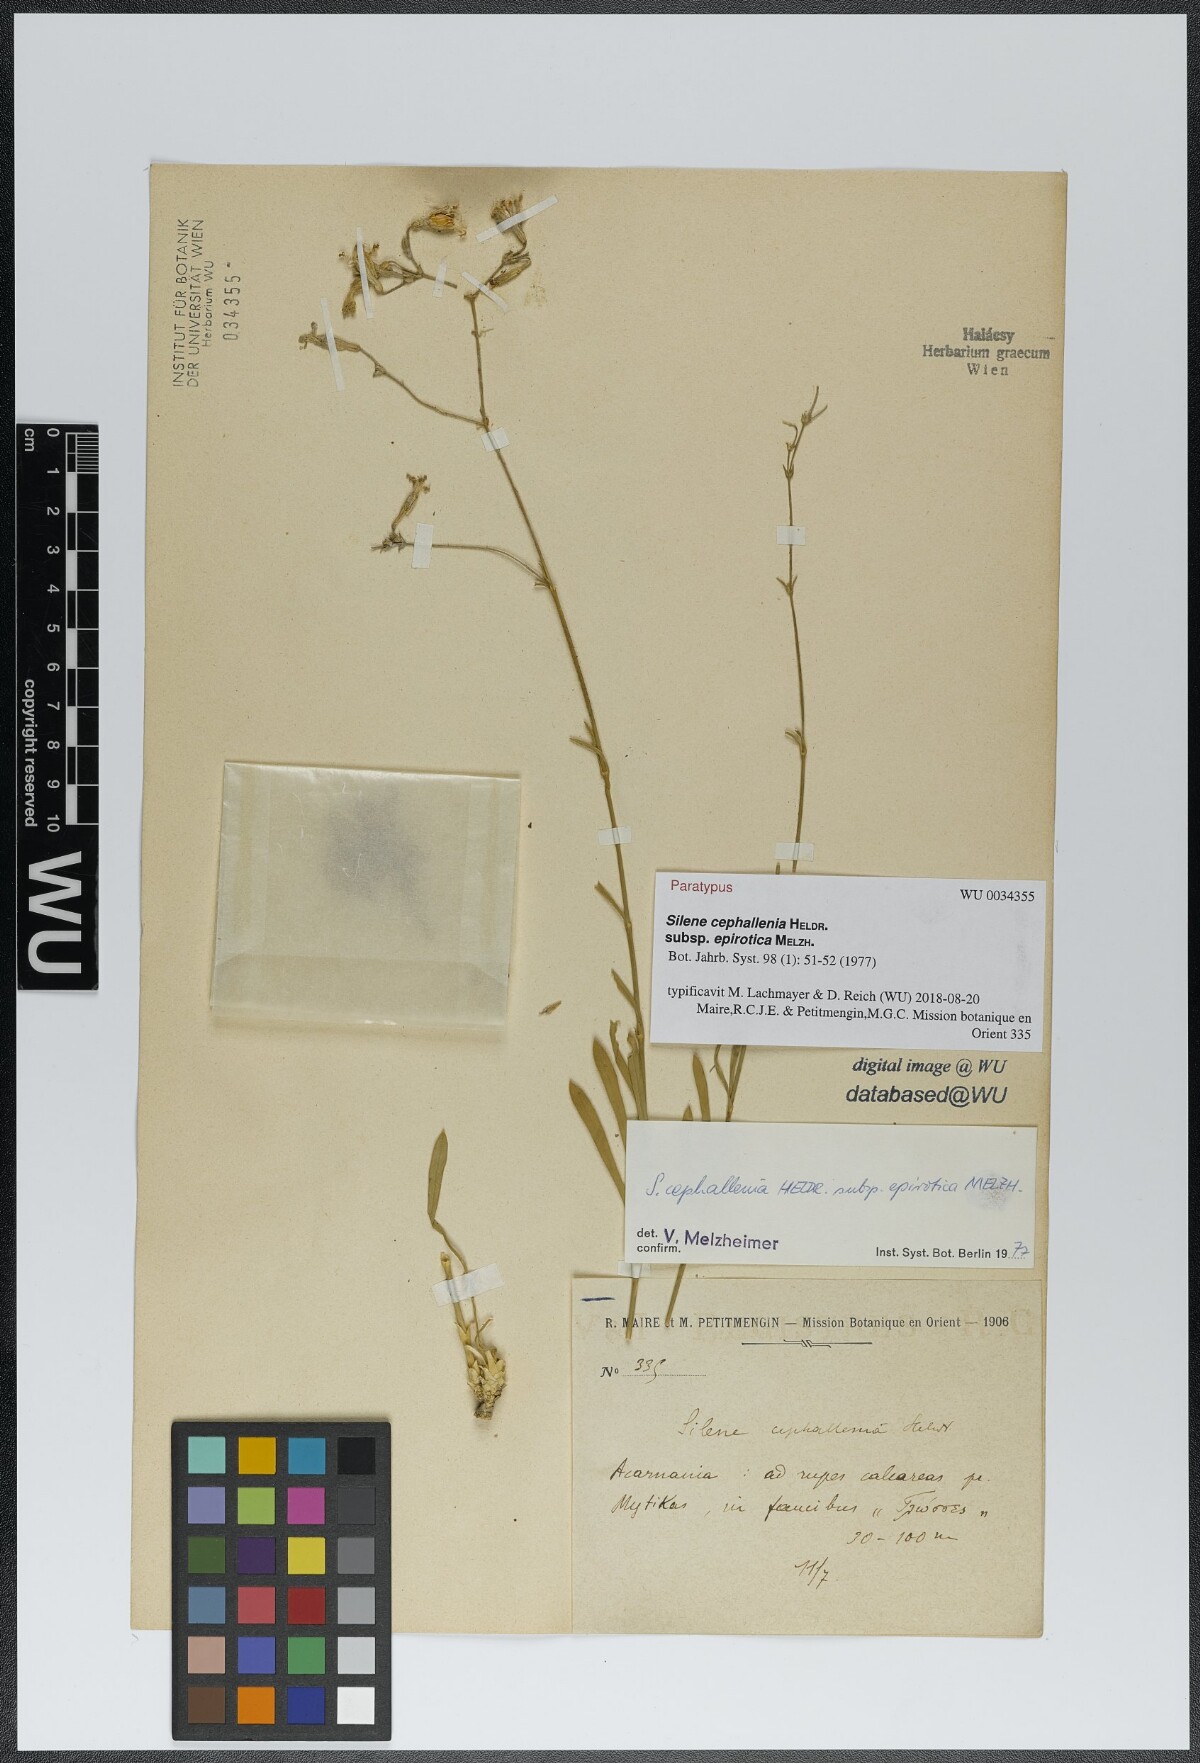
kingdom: Plantae
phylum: Tracheophyta
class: Magnoliopsida
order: Caryophyllales
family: Caryophyllaceae
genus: Silene
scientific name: Silene cephallenia
